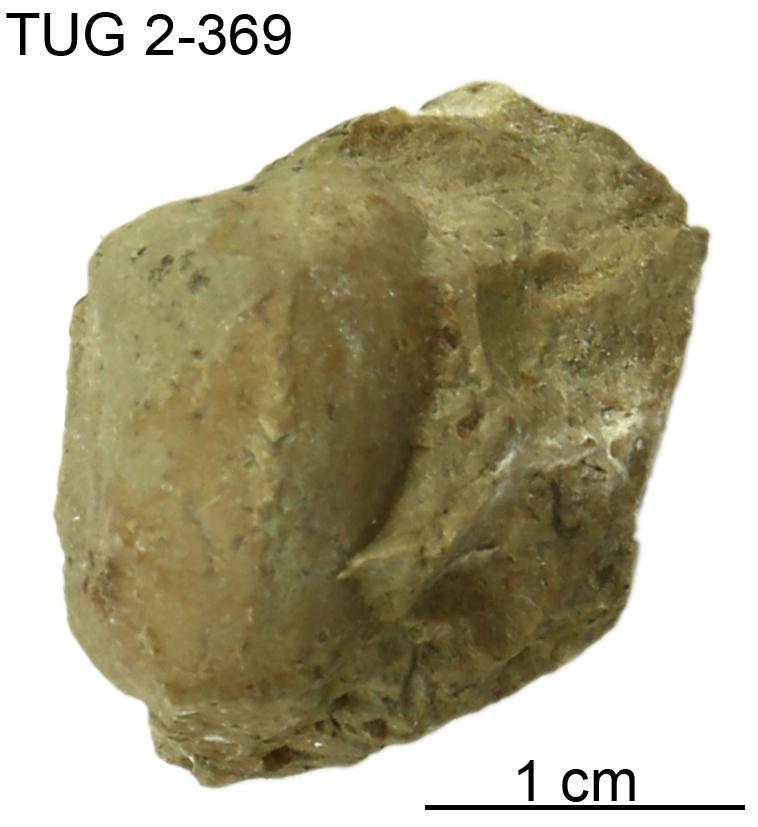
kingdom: Animalia
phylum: Mollusca
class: Gastropoda
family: Bucaniidae
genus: Megalomphala
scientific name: Megalomphala cycloides
